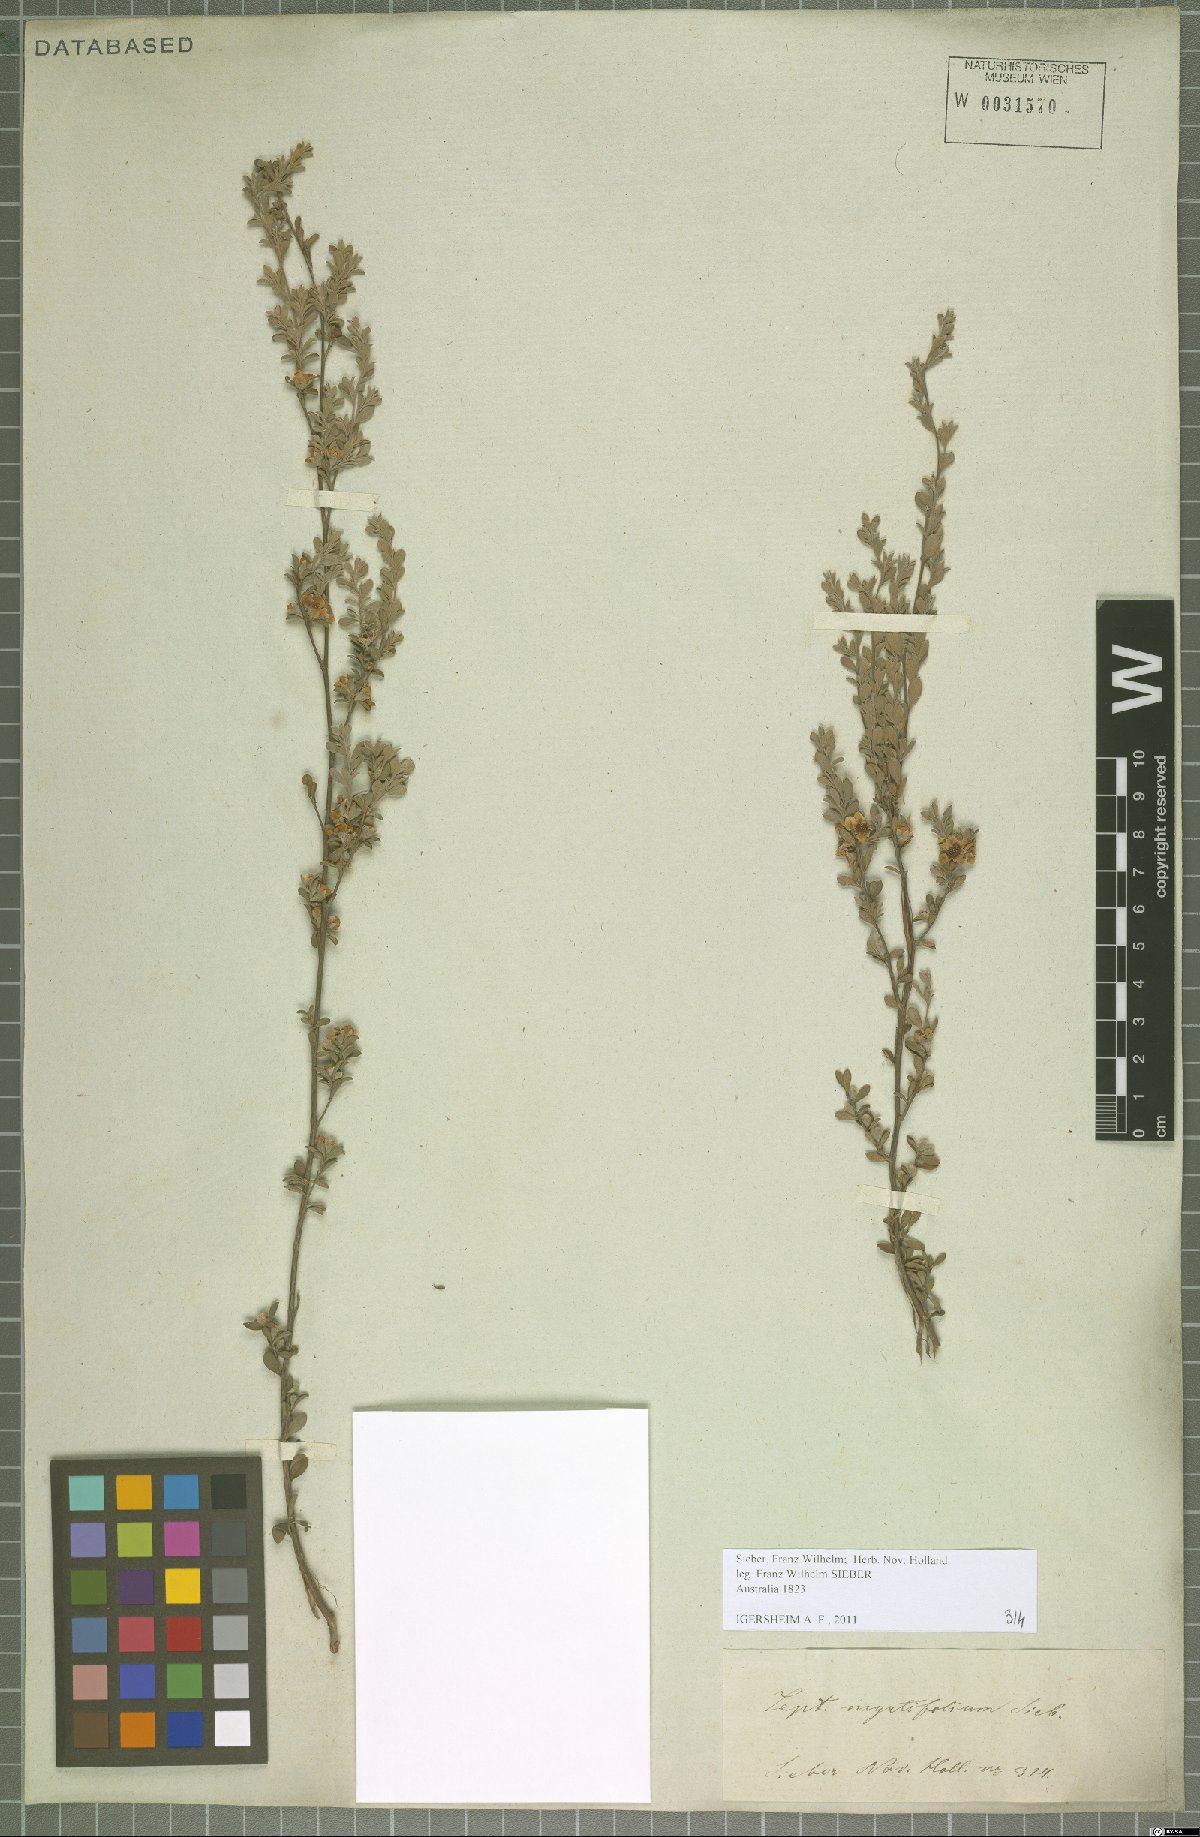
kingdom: Plantae
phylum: Tracheophyta
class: Magnoliopsida
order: Myrtales
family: Myrtaceae
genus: Leptospermum
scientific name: Leptospermum myrtifolium
